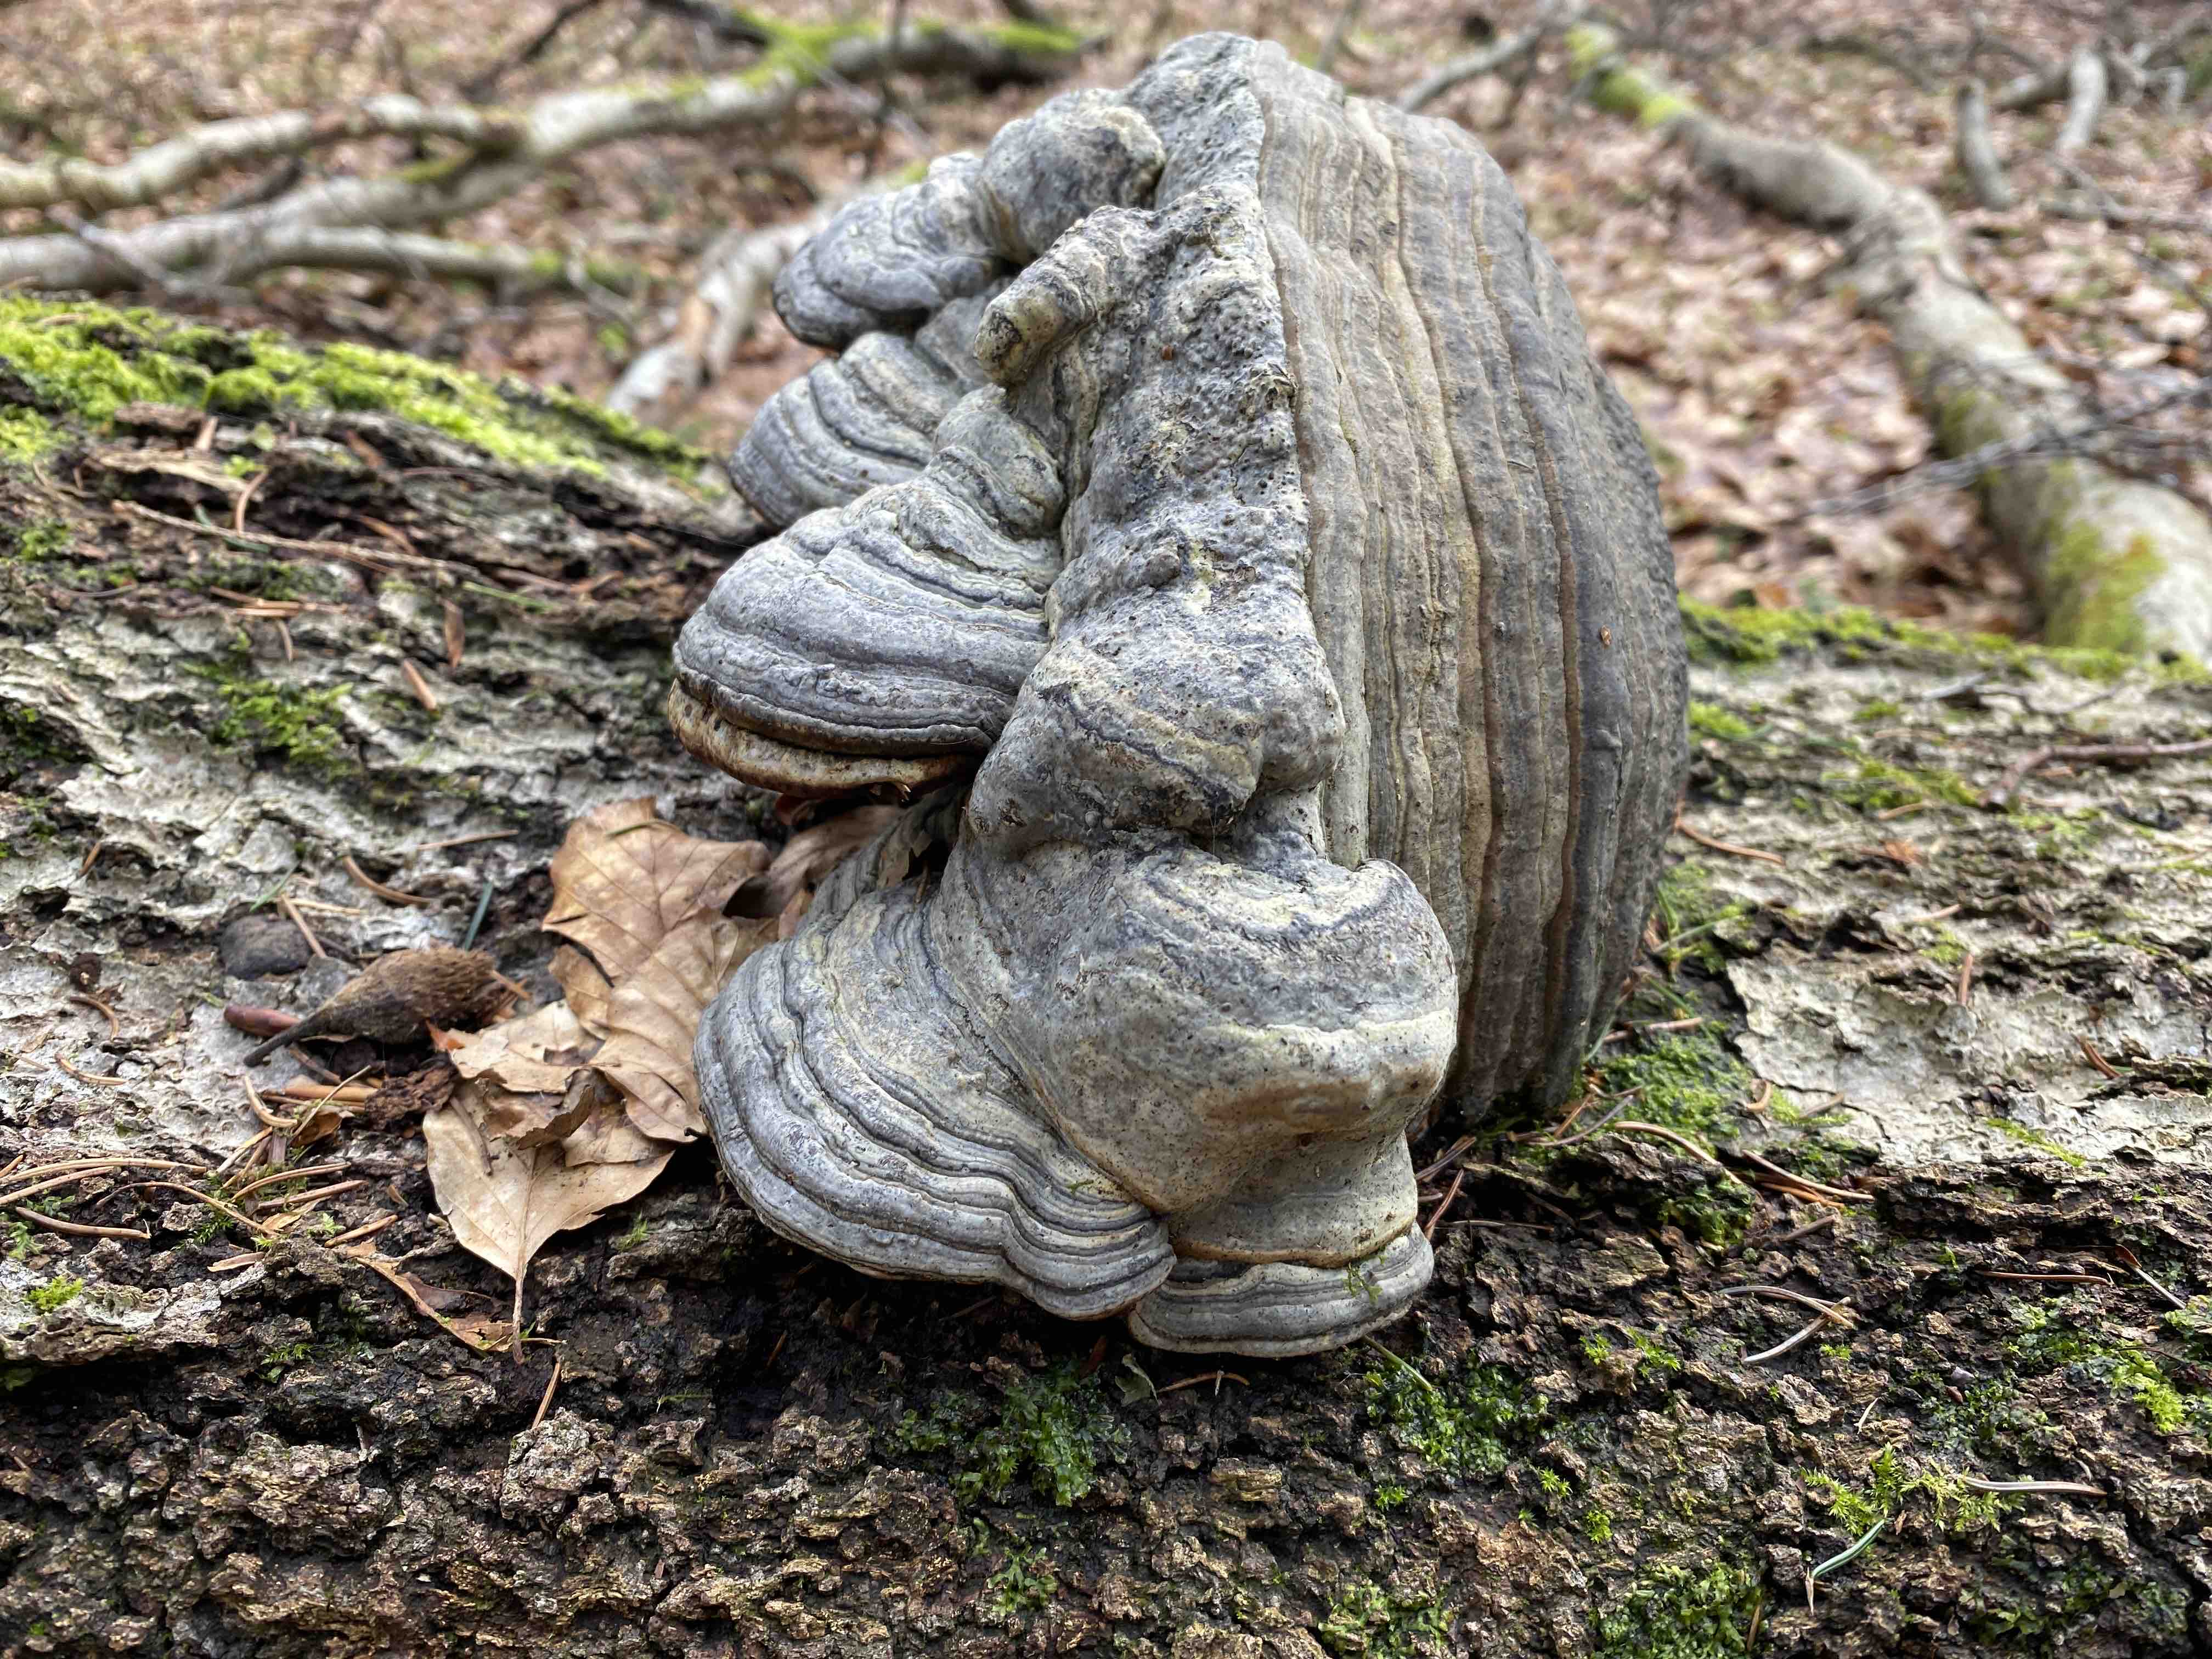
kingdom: Fungi
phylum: Basidiomycota
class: Agaricomycetes
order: Polyporales
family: Polyporaceae
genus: Fomes
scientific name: Fomes fomentarius
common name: tøndersvamp
